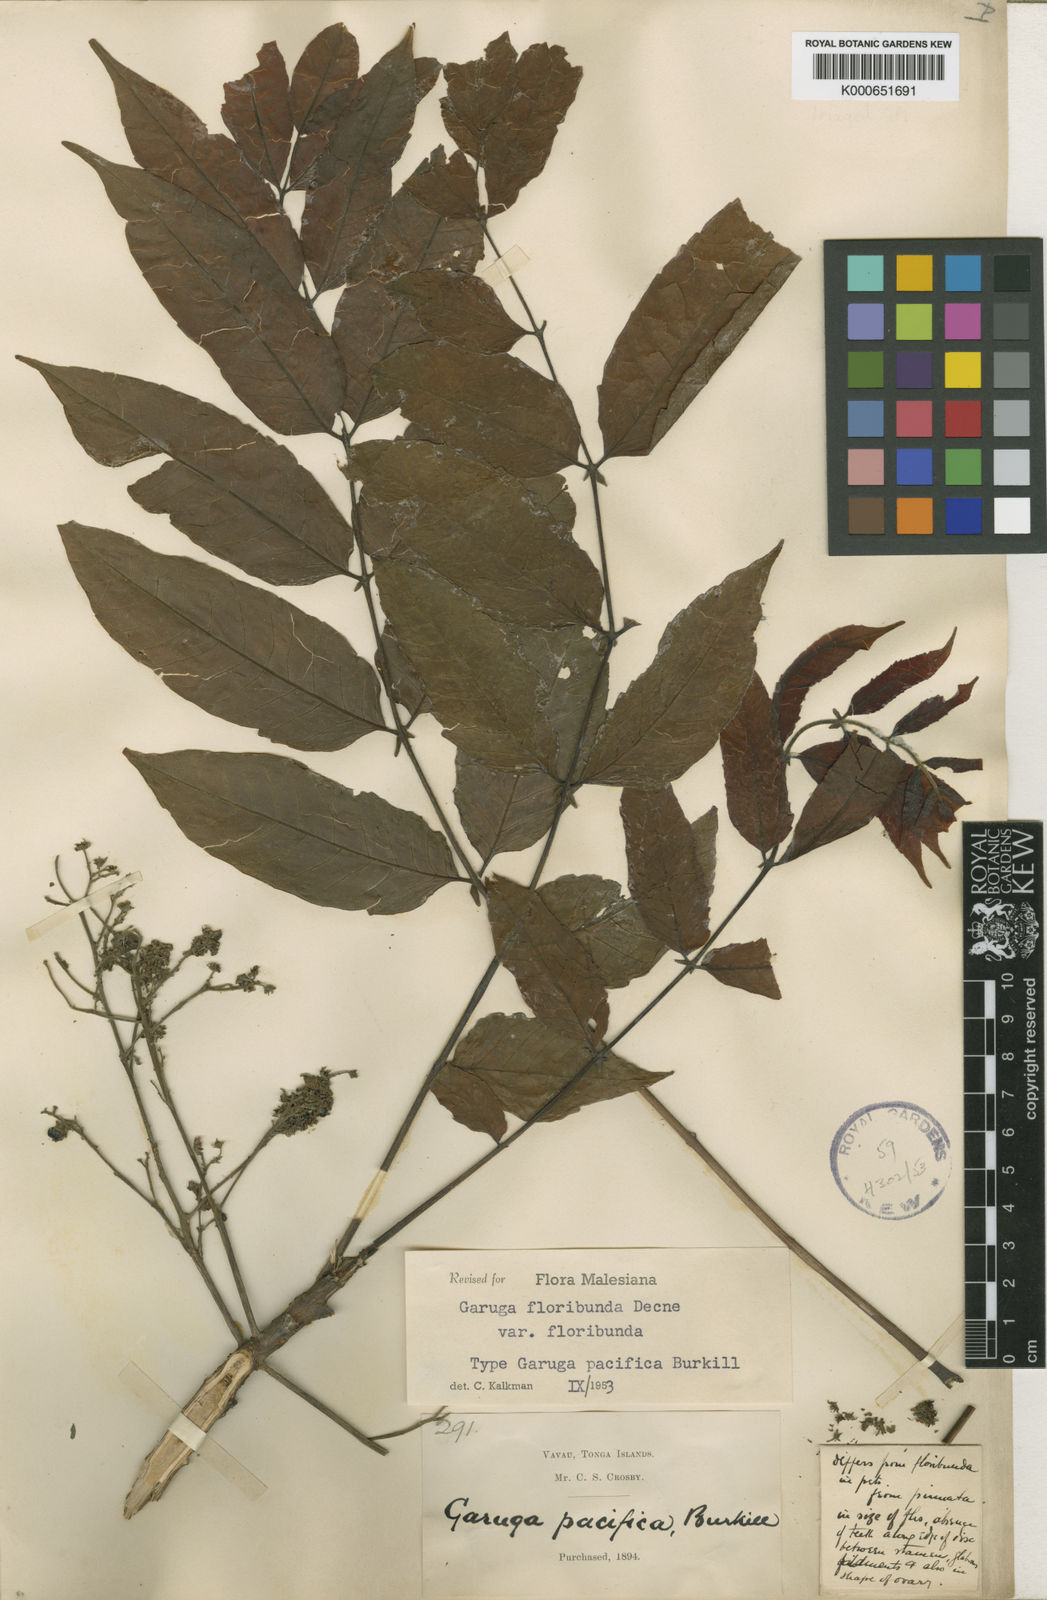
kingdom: Plantae
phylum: Tracheophyta
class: Magnoliopsida
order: Sapindales
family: Burseraceae
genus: Garuga
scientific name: Garuga floribunda
